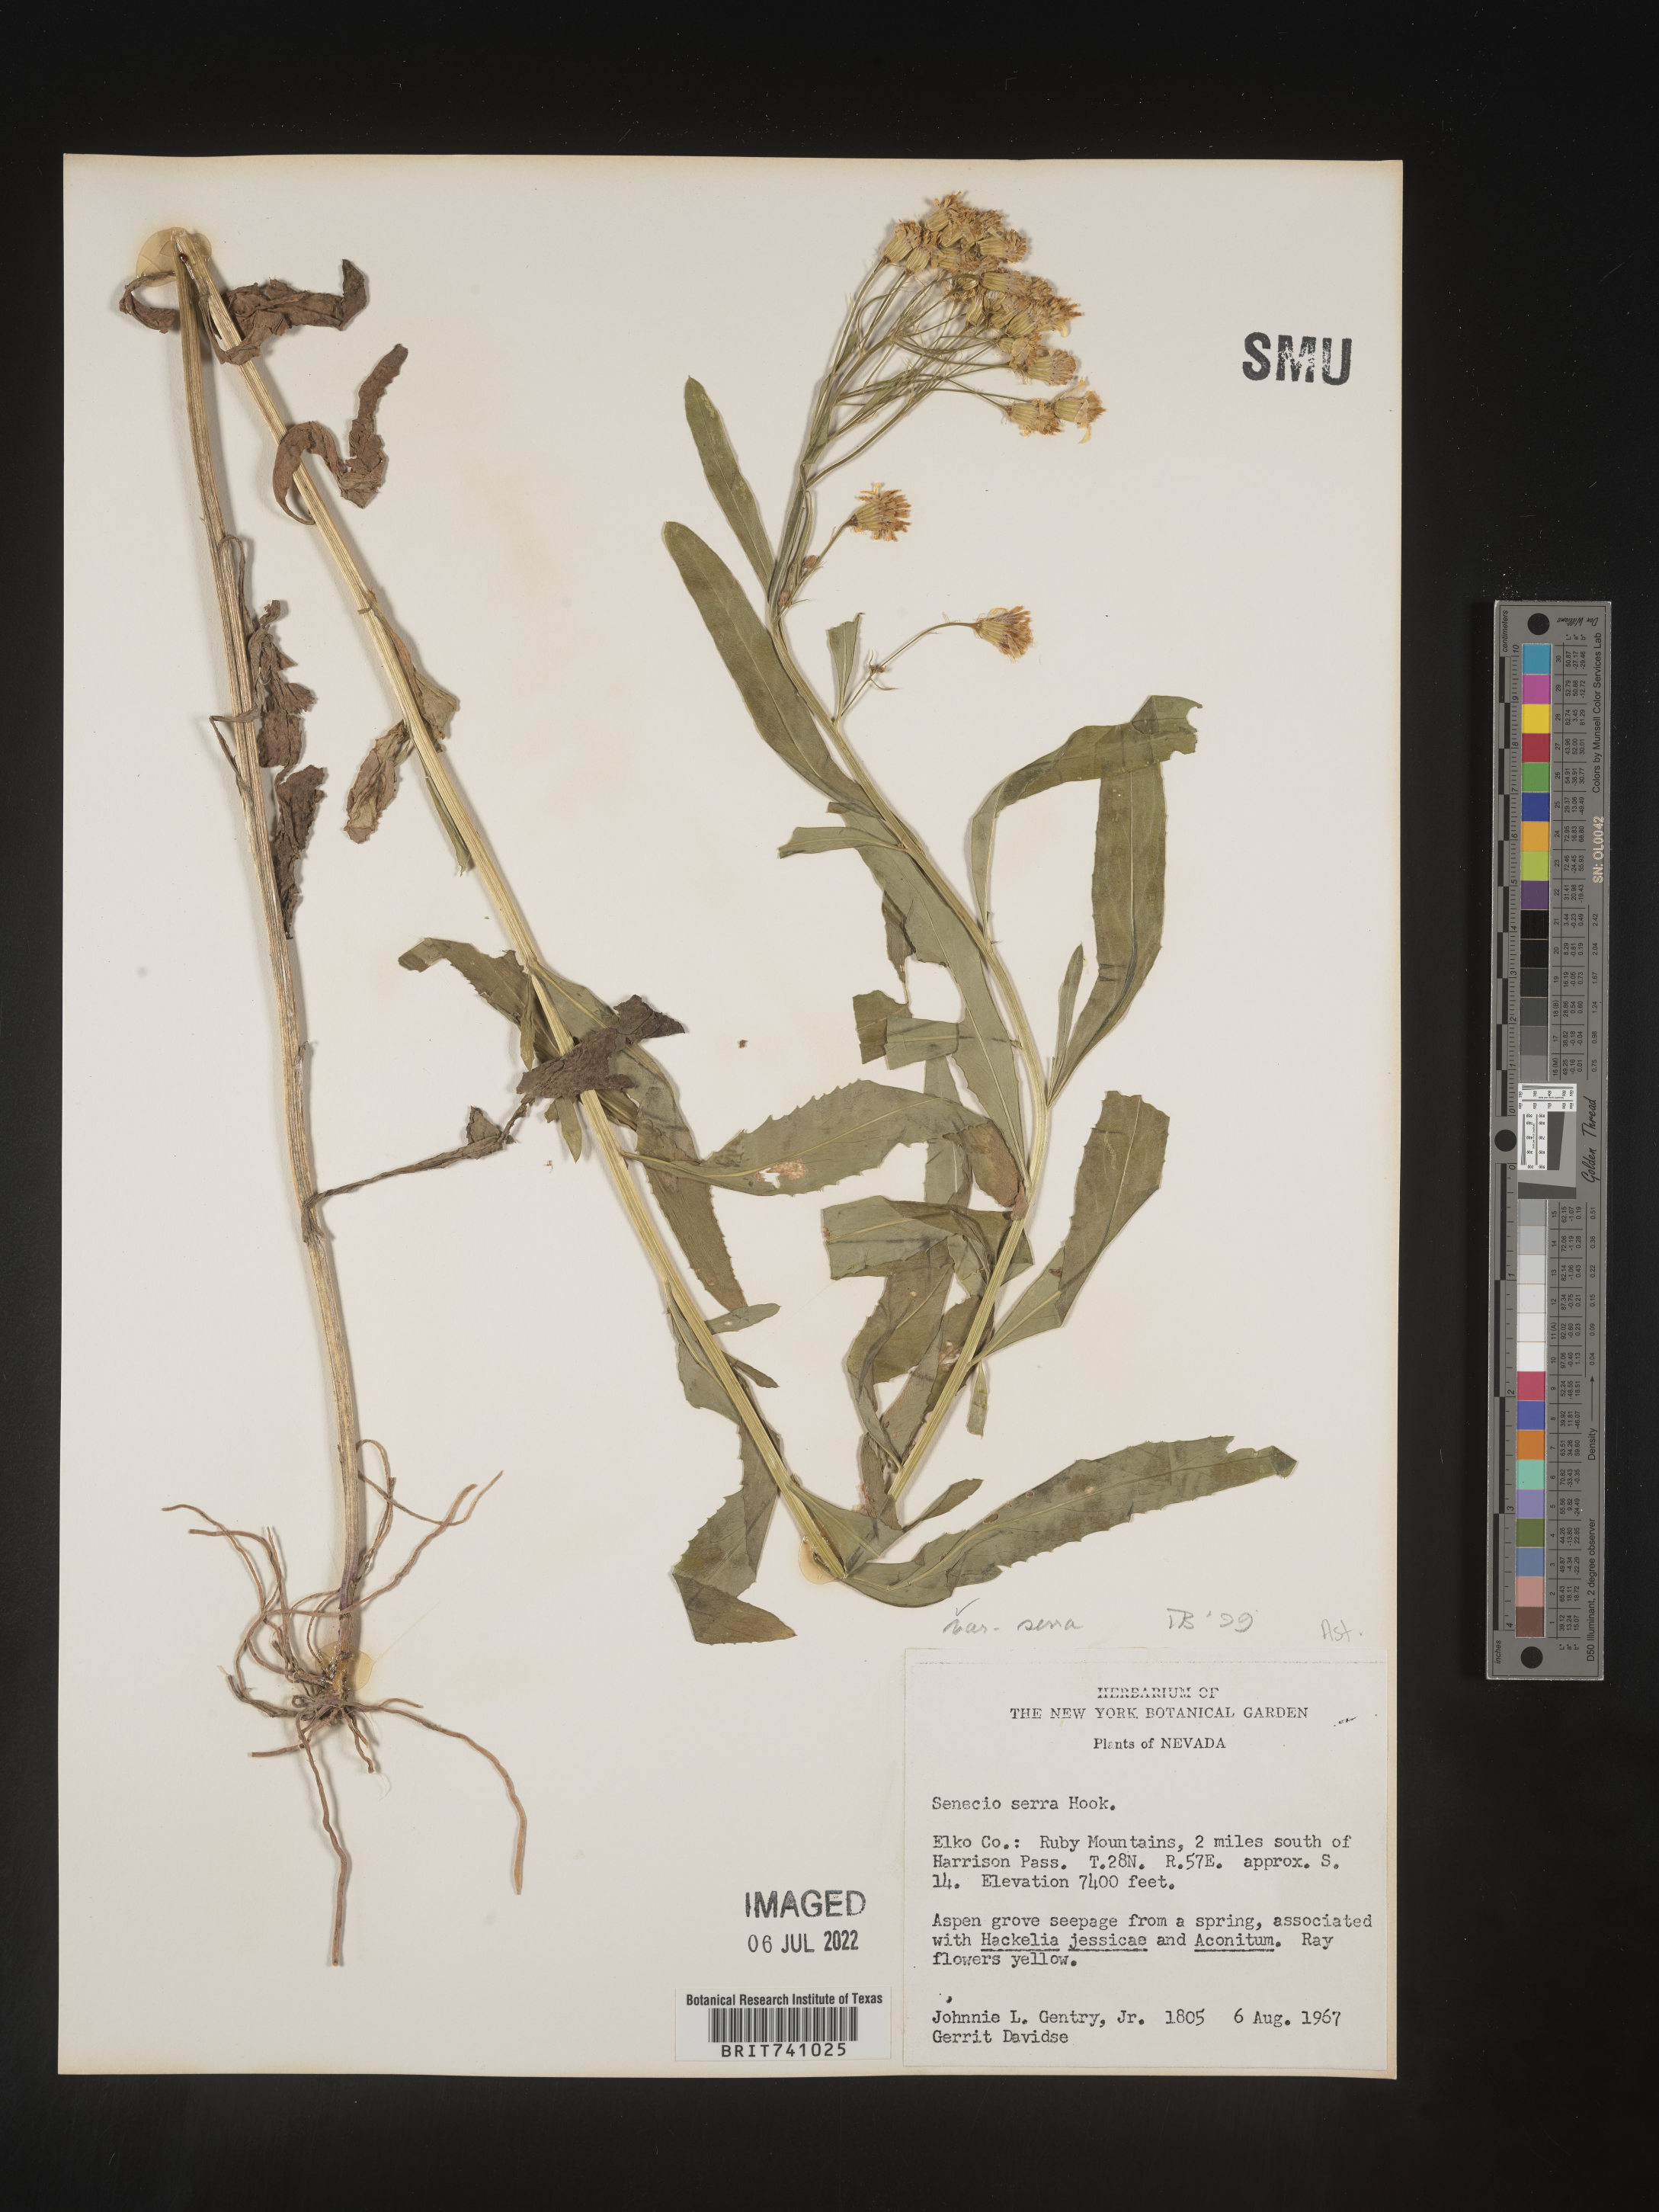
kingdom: Plantae
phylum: Tracheophyta
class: Magnoliopsida
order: Asterales
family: Asteraceae
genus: Senecio
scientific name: Senecio serra
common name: Tall ragwort
